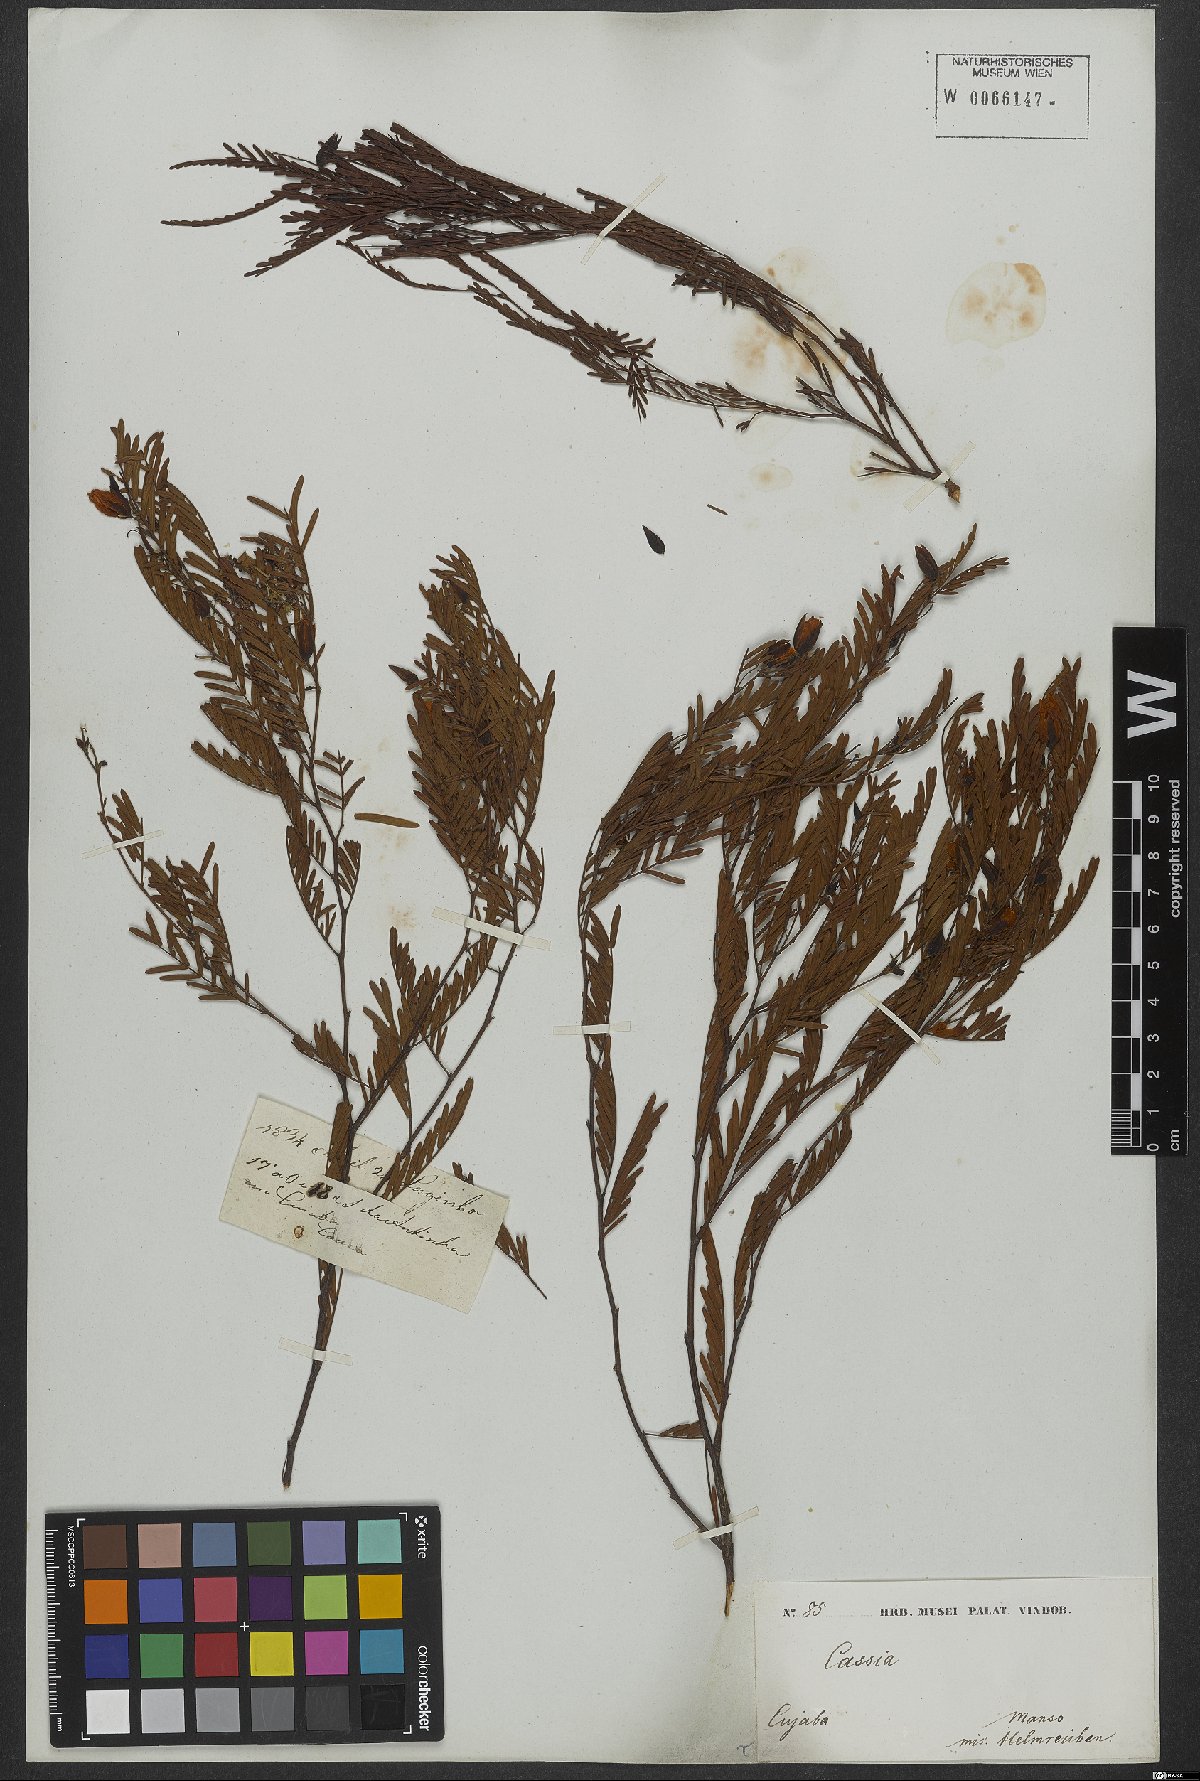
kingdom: Plantae
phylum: Tracheophyta
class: Magnoliopsida
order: Fabales
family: Fabaceae
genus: Chamaecrista
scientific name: Chamaecrista parvistipula
